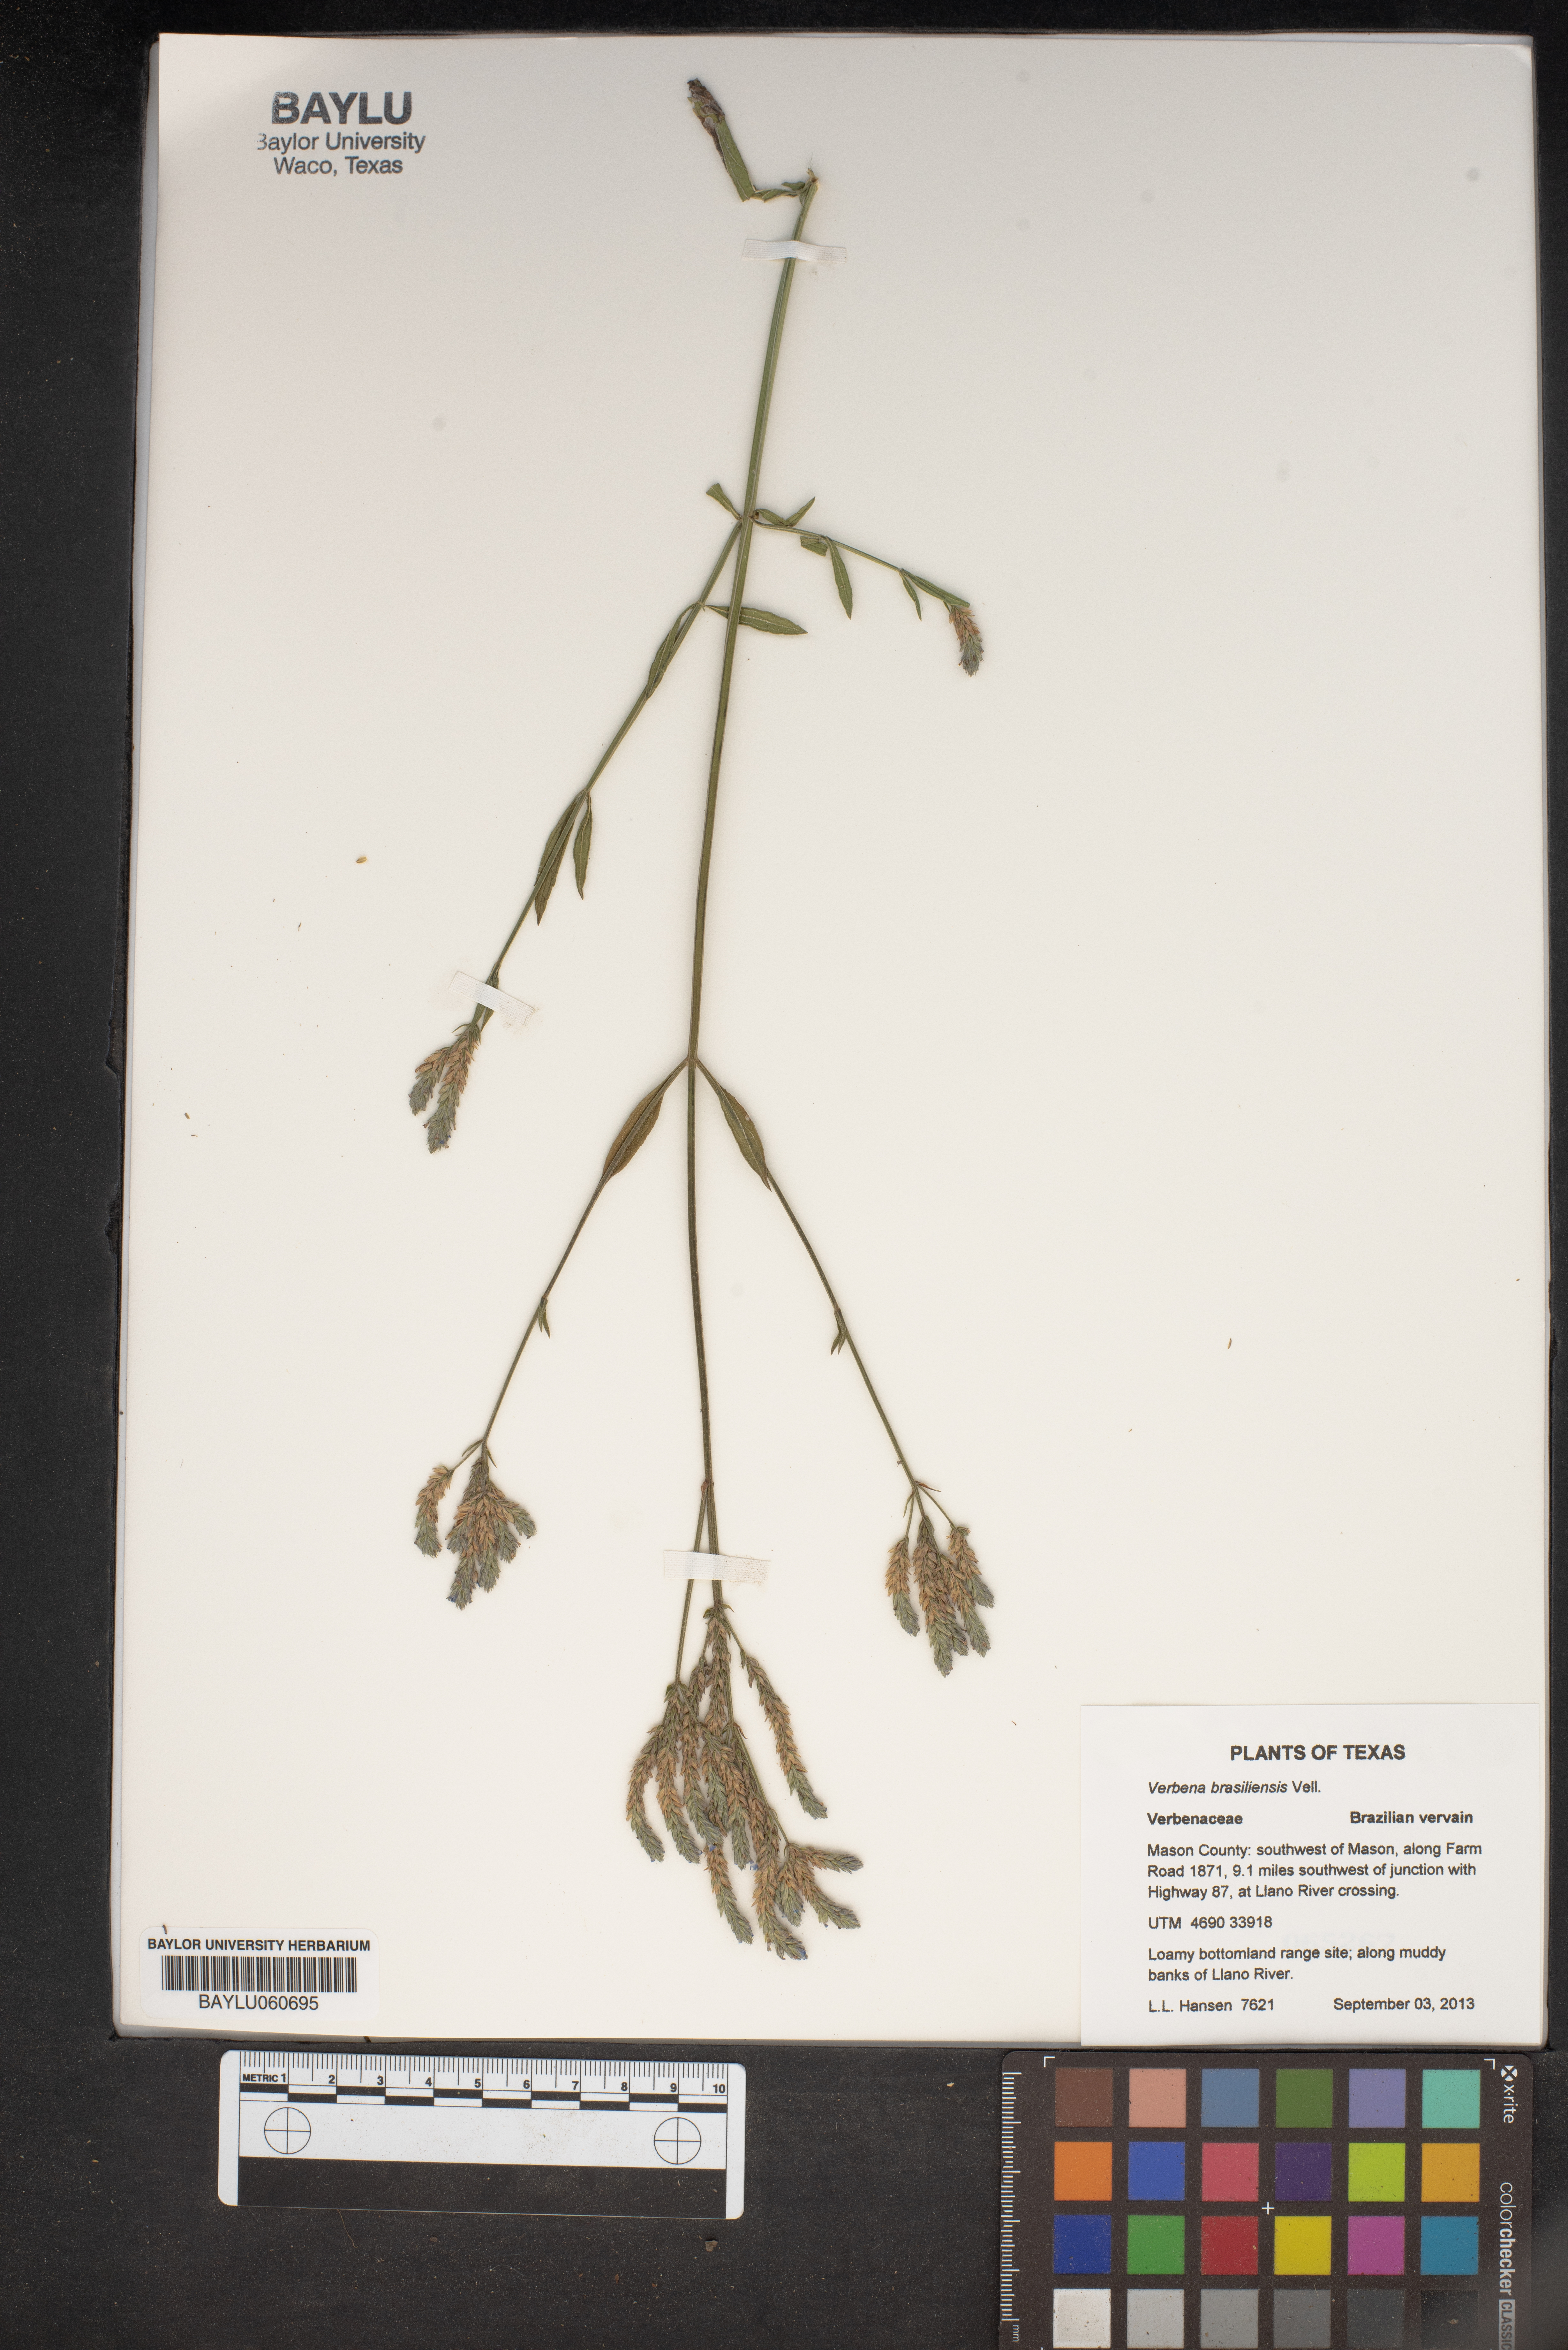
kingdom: Plantae
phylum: Tracheophyta
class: Magnoliopsida
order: Lamiales
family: Verbenaceae
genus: Verbena
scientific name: Verbena brasiliensis
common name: Brazilian vervain
